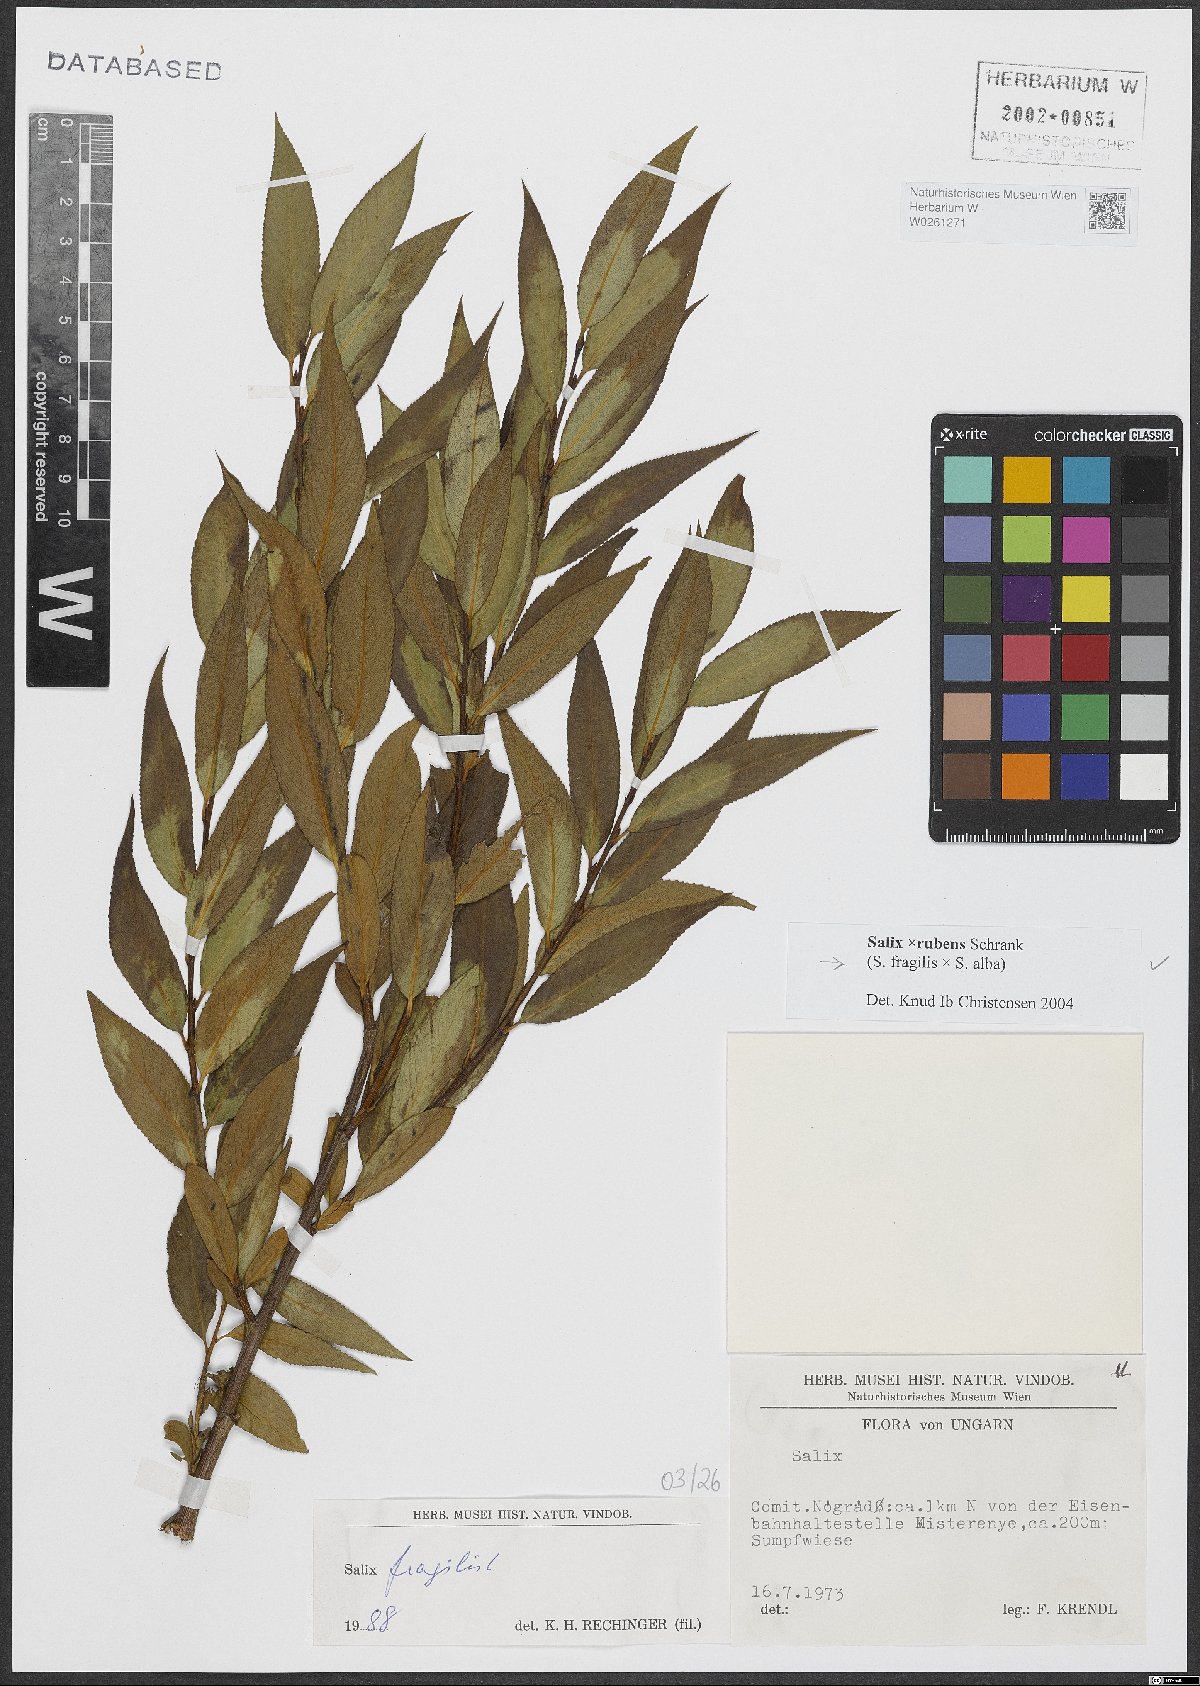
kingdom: Plantae
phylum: Tracheophyta
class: Magnoliopsida
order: Malpighiales
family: Salicaceae
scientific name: Salicaceae
